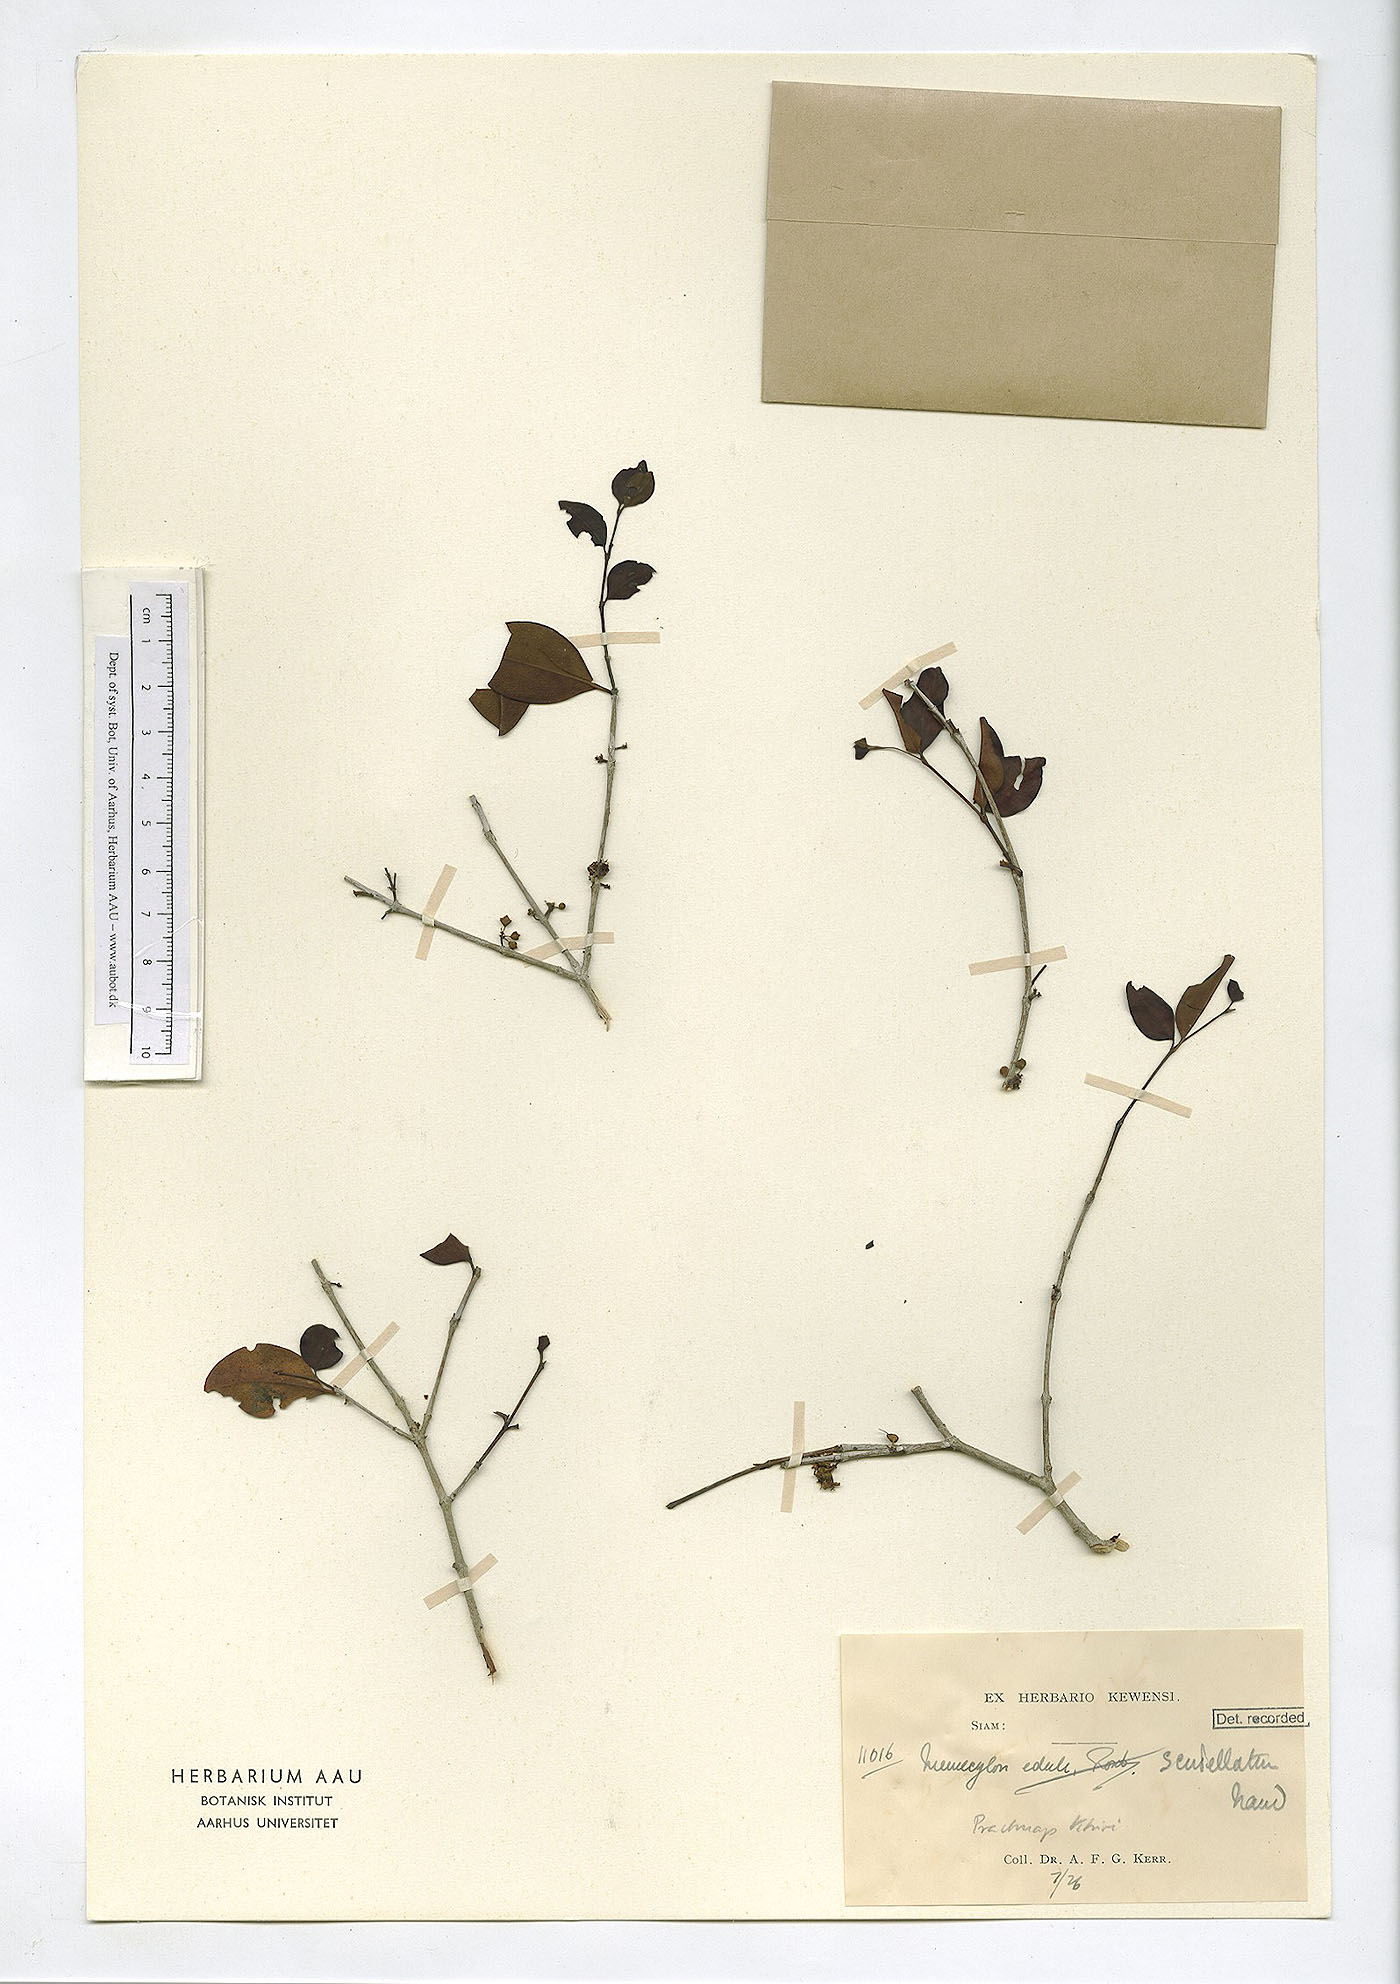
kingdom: Plantae
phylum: Tracheophyta
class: Magnoliopsida
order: Myrtales
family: Melastomataceae
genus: Memecylon
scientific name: Memecylon scutellatum
